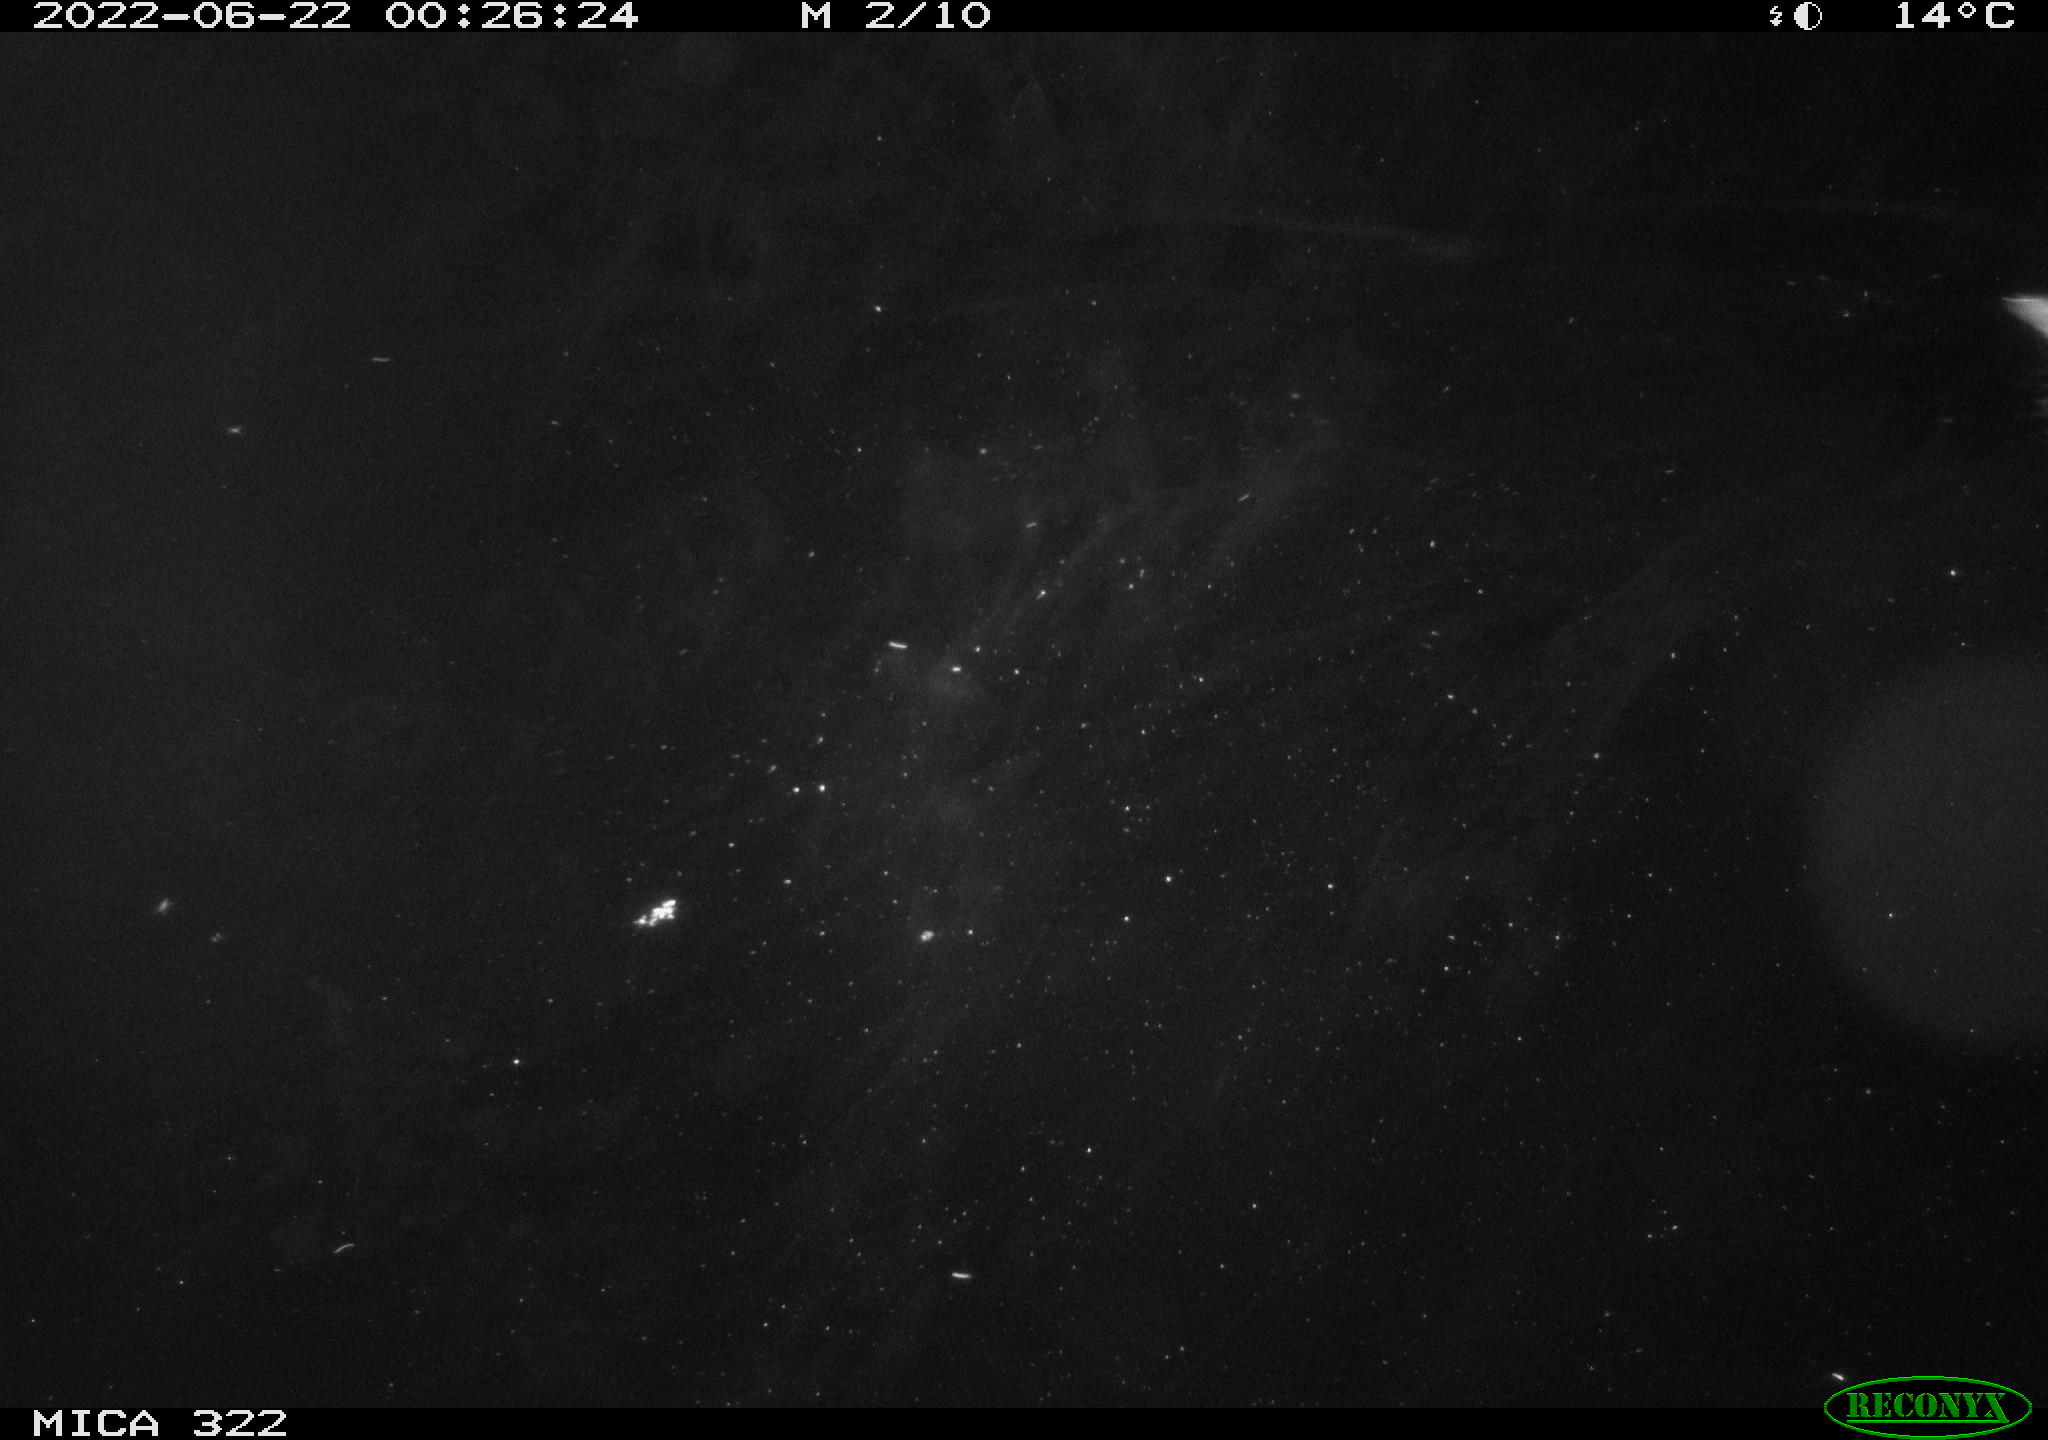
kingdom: Animalia
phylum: Chordata
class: Aves
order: Gruiformes
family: Rallidae
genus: Gallinula
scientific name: Gallinula chloropus
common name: Common moorhen
